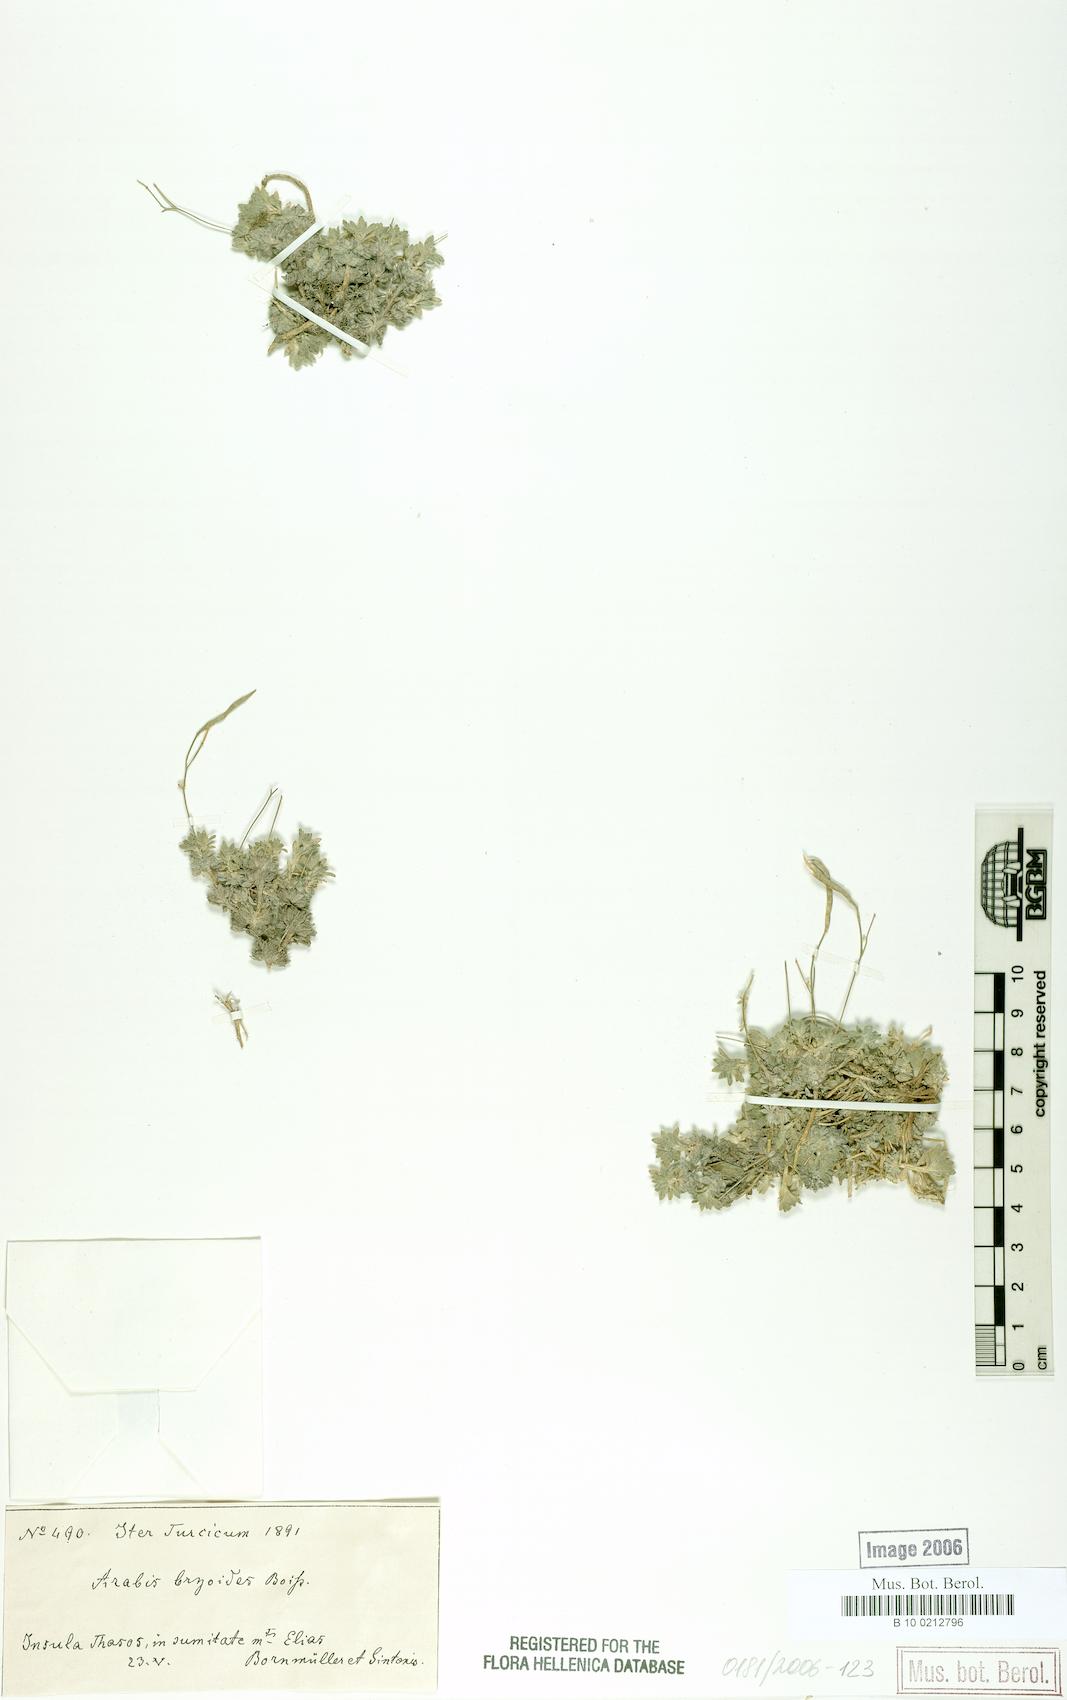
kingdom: Plantae
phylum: Tracheophyta
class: Magnoliopsida
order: Brassicales
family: Brassicaceae
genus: Arabis
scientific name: Arabis bryoides
